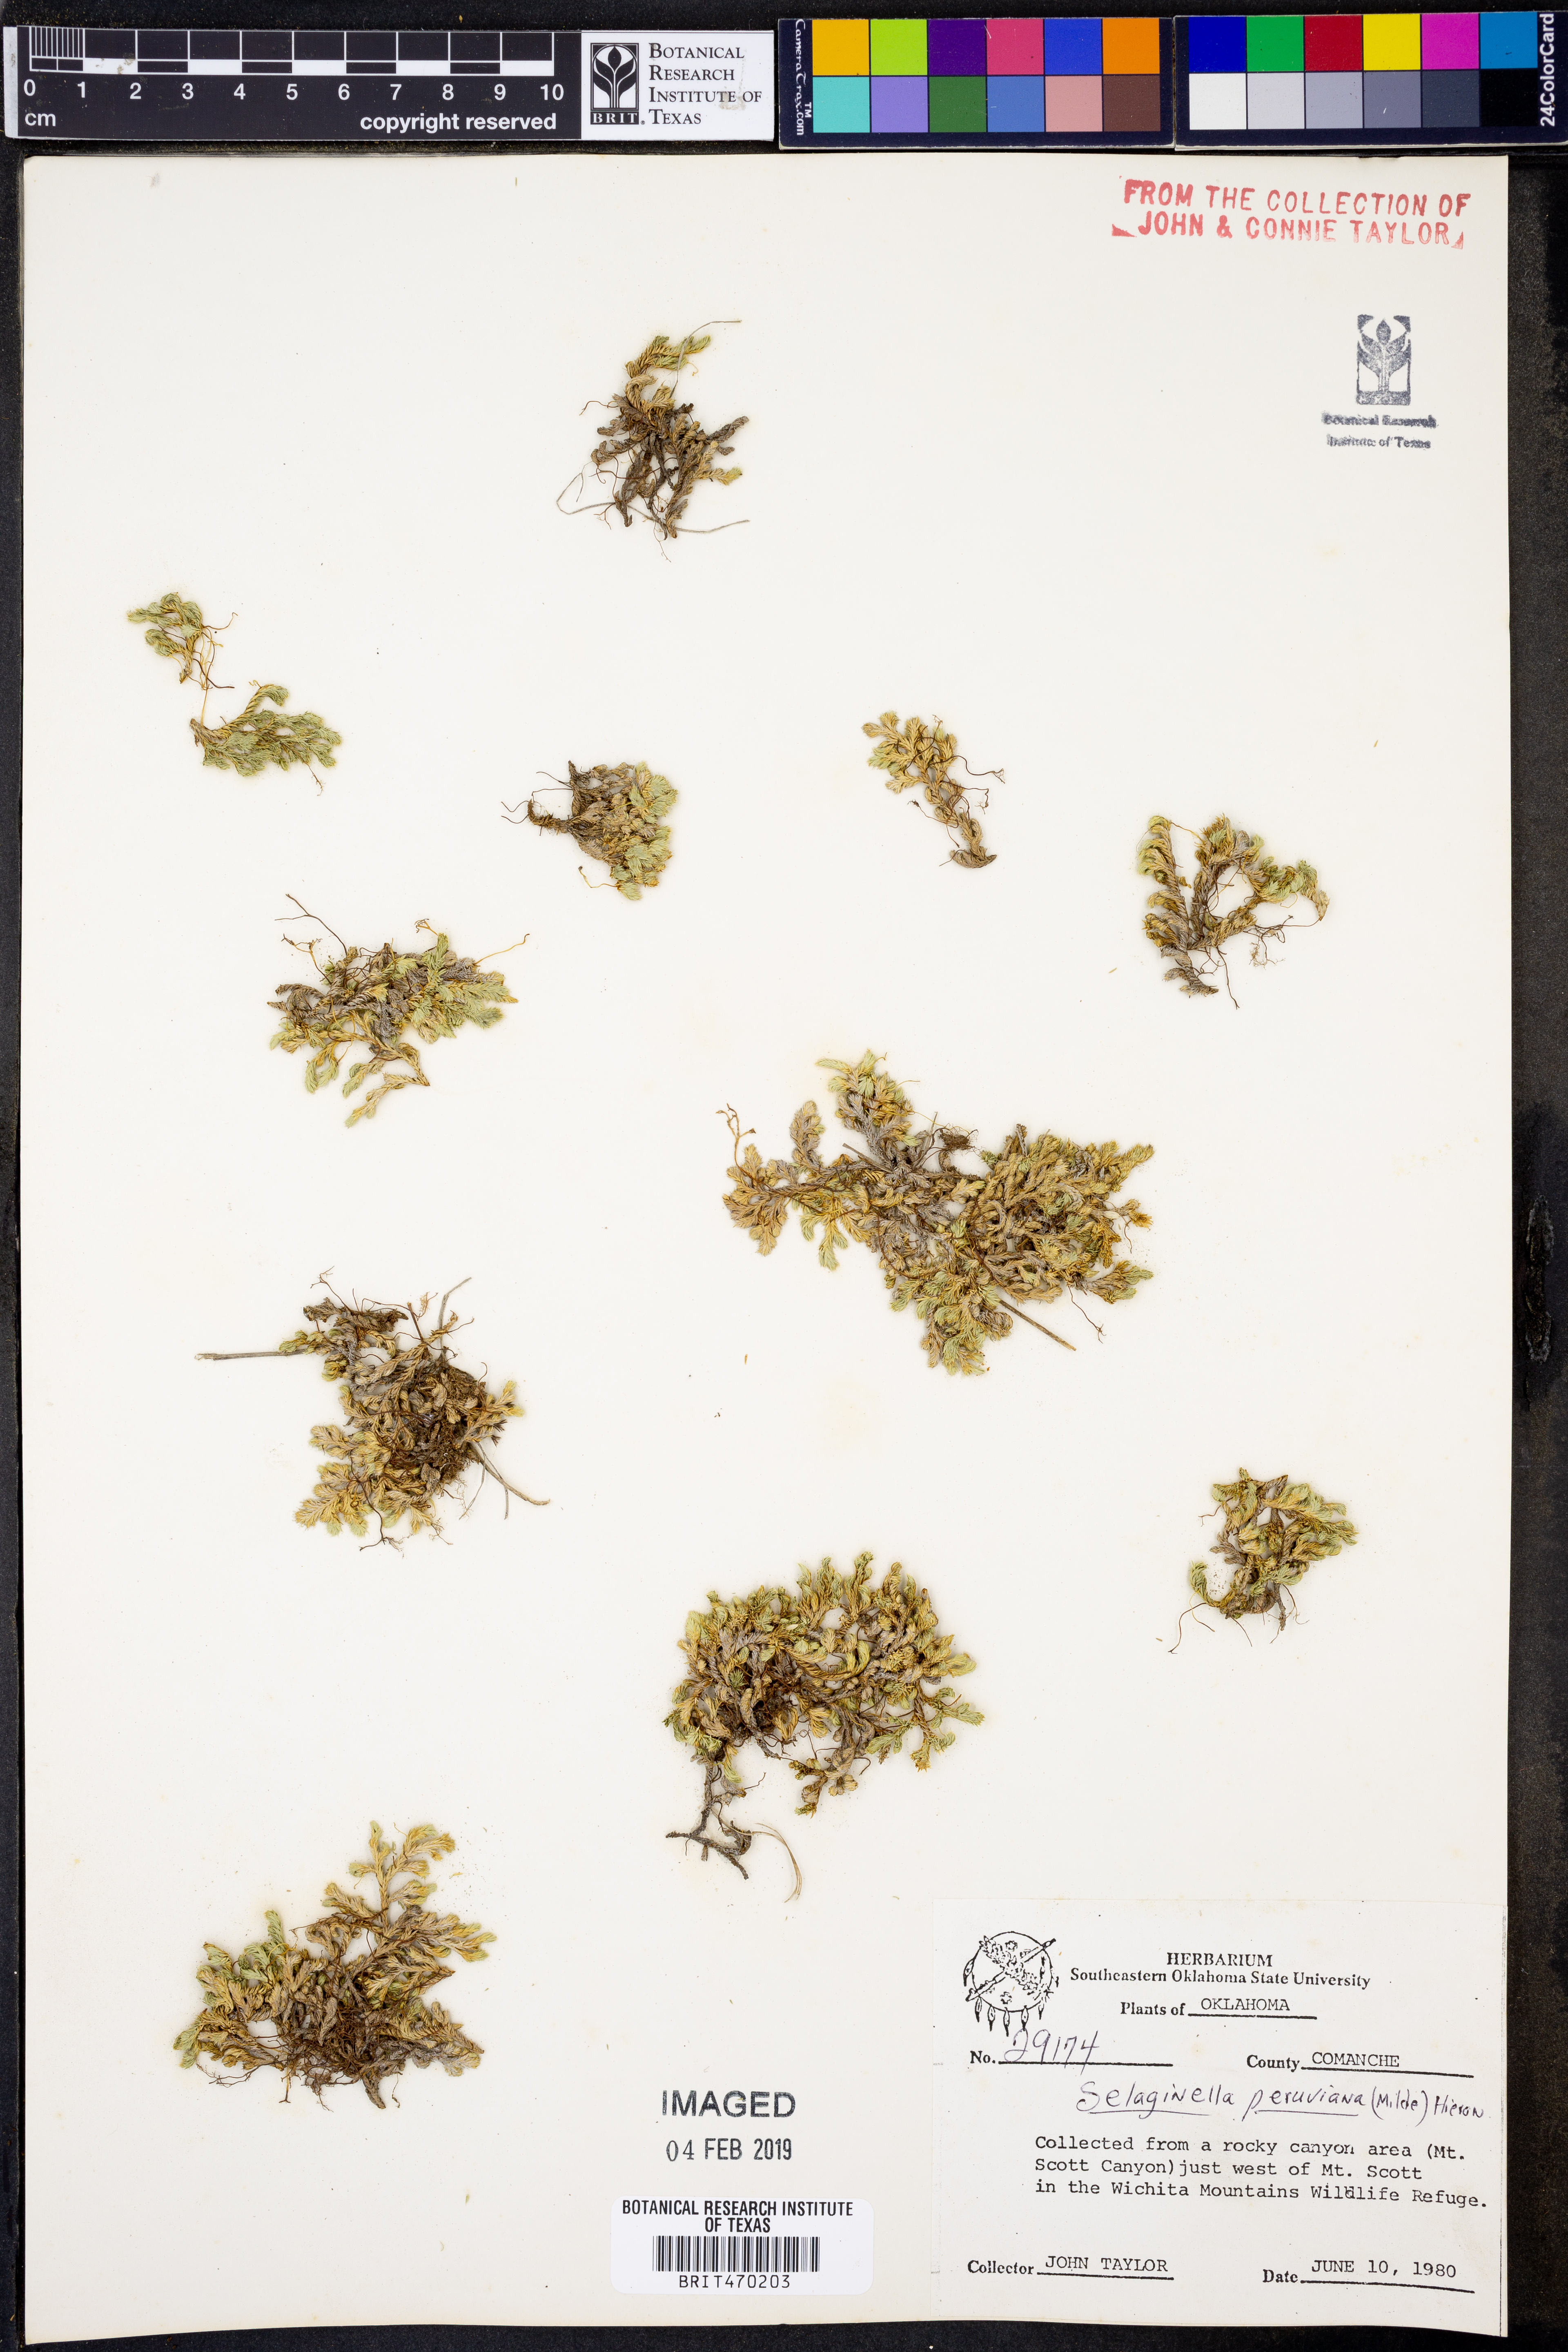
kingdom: Plantae
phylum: Tracheophyta
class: Lycopodiopsida
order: Selaginellales
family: Selaginellaceae
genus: Selaginella
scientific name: Selaginella peruviana
